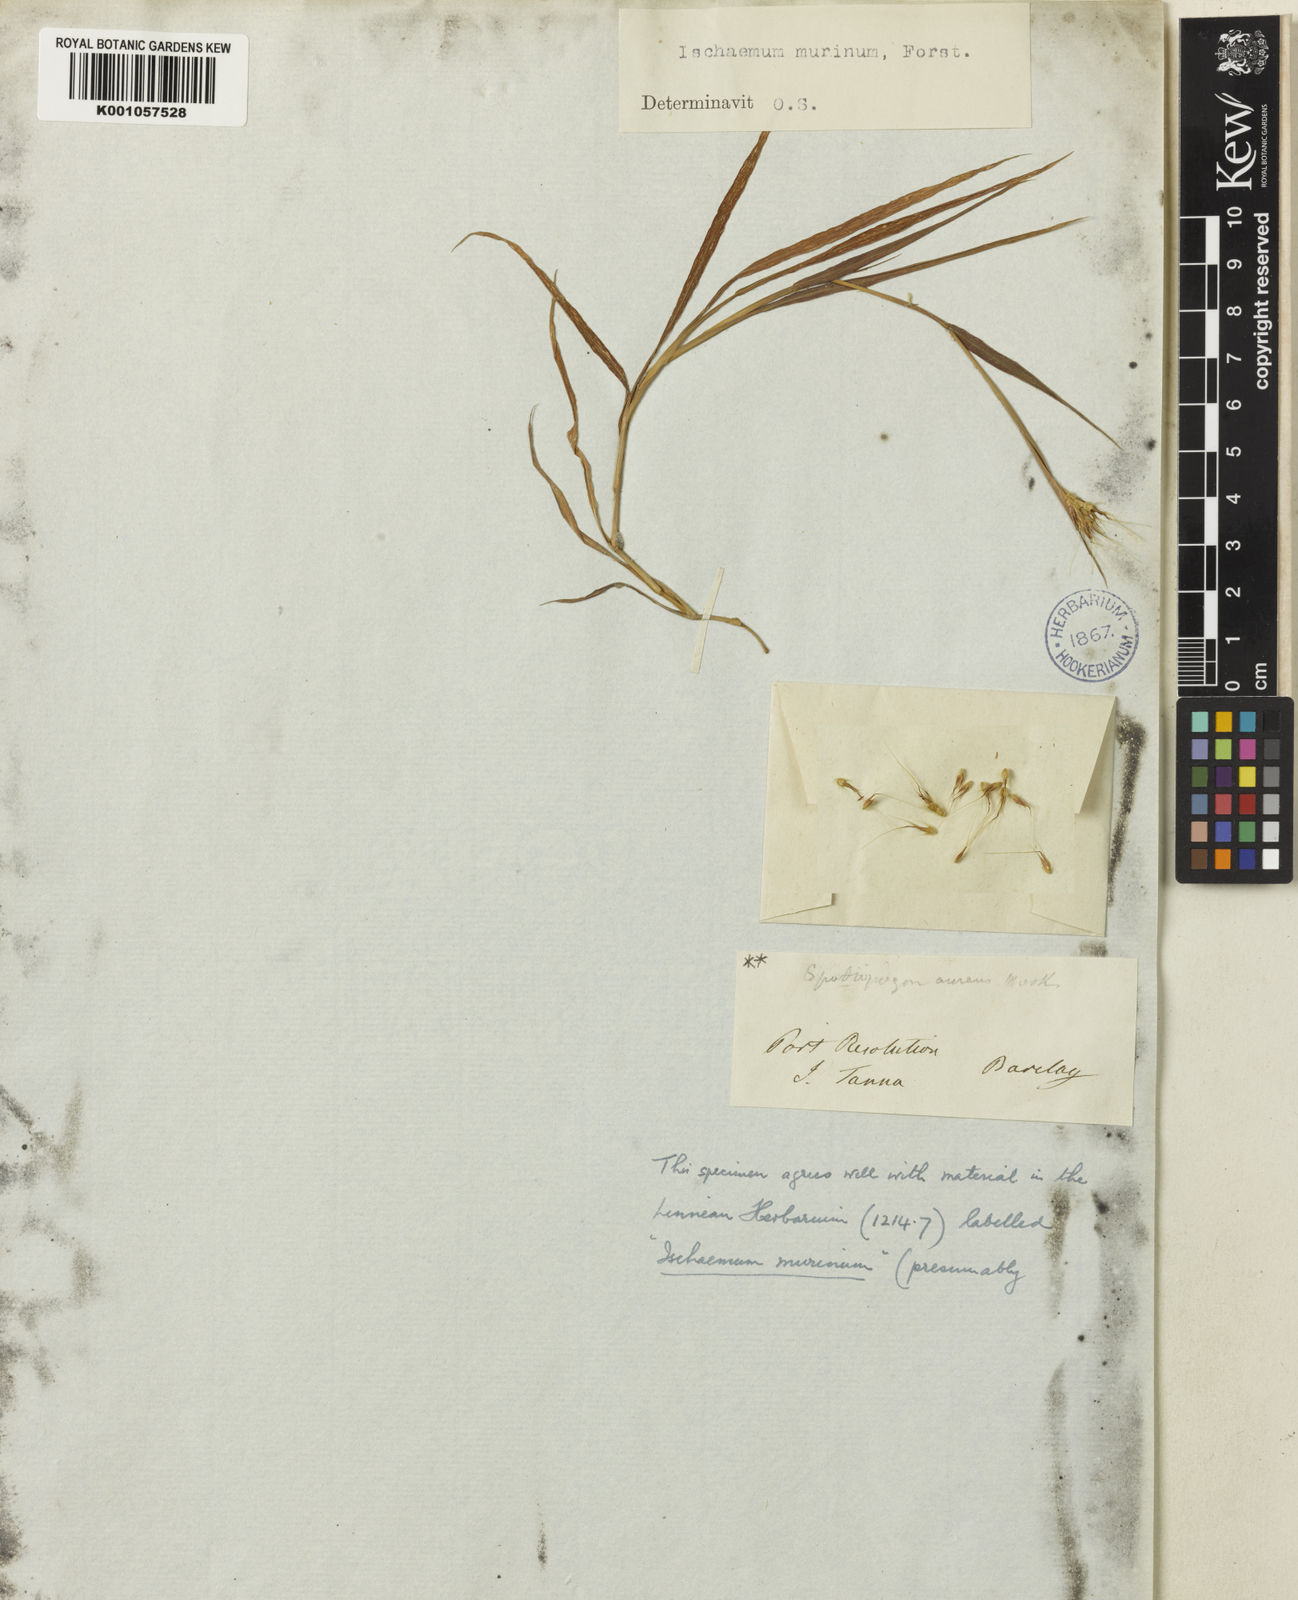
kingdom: Plantae
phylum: Tracheophyta
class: Liliopsida
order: Poales
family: Poaceae
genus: Ischaemum
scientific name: Ischaemum murinum
